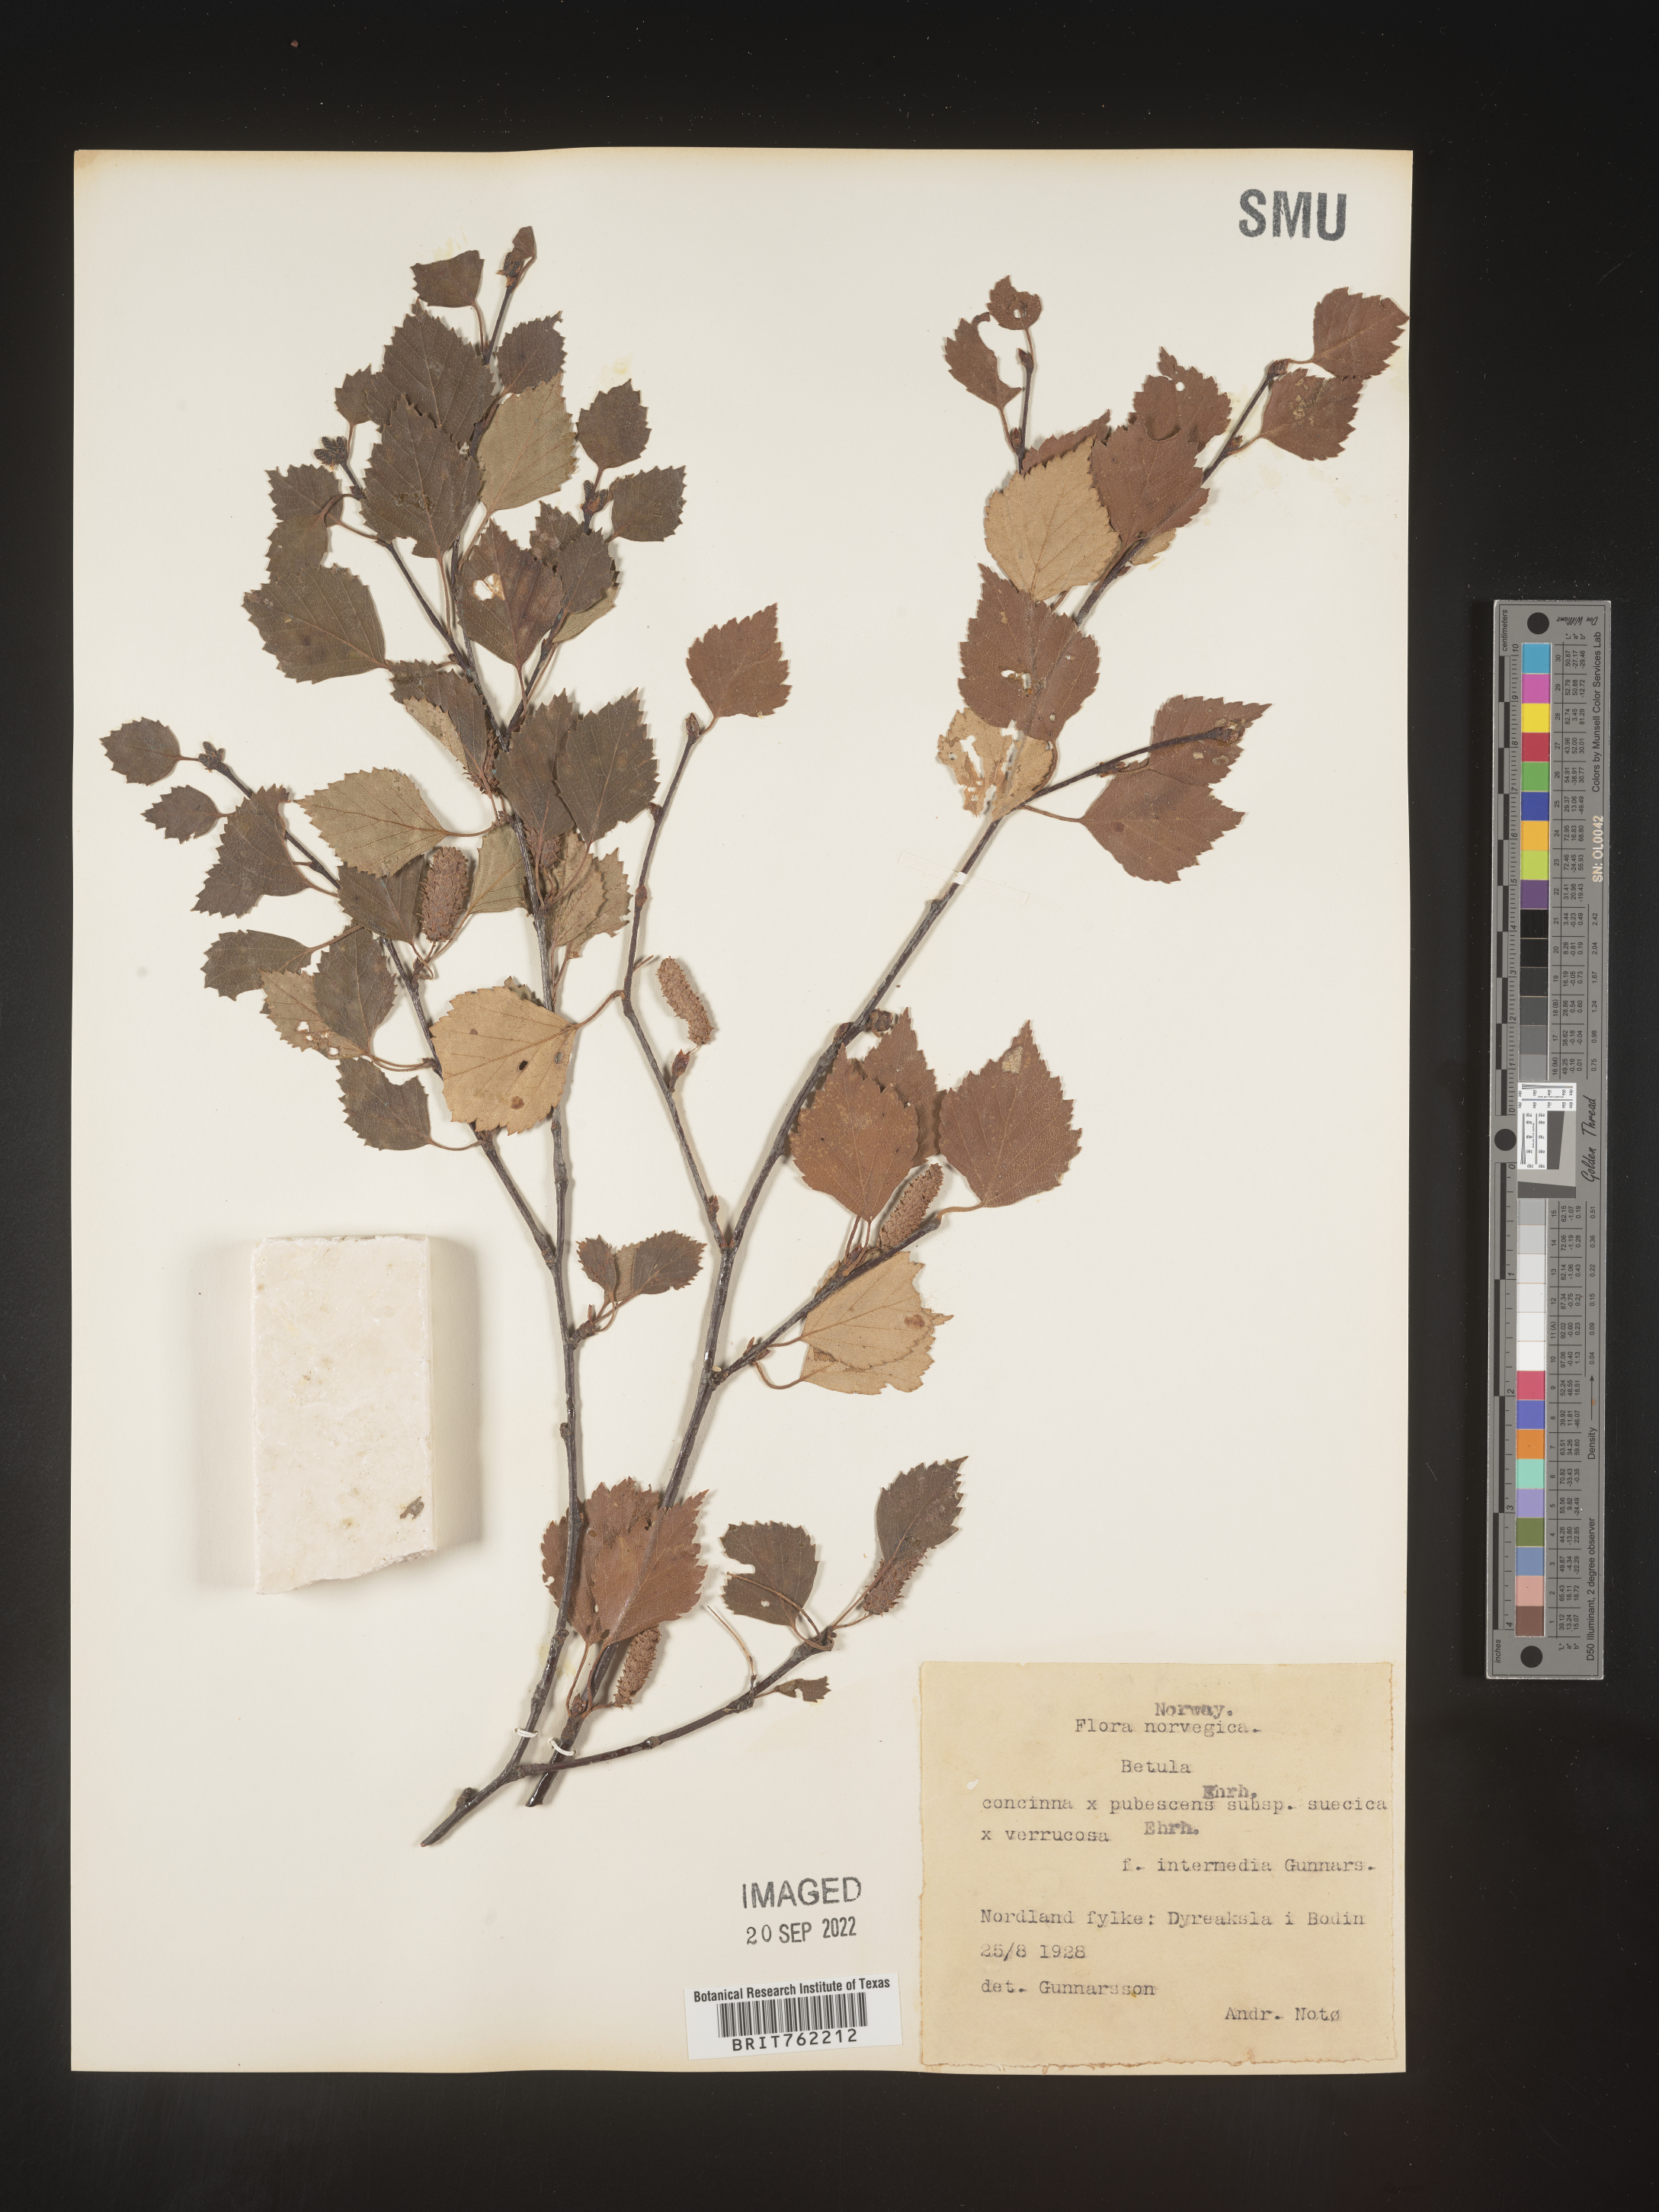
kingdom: Plantae
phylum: Tracheophyta
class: Magnoliopsida
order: Fagales
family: Betulaceae
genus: Betula
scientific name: Betula
